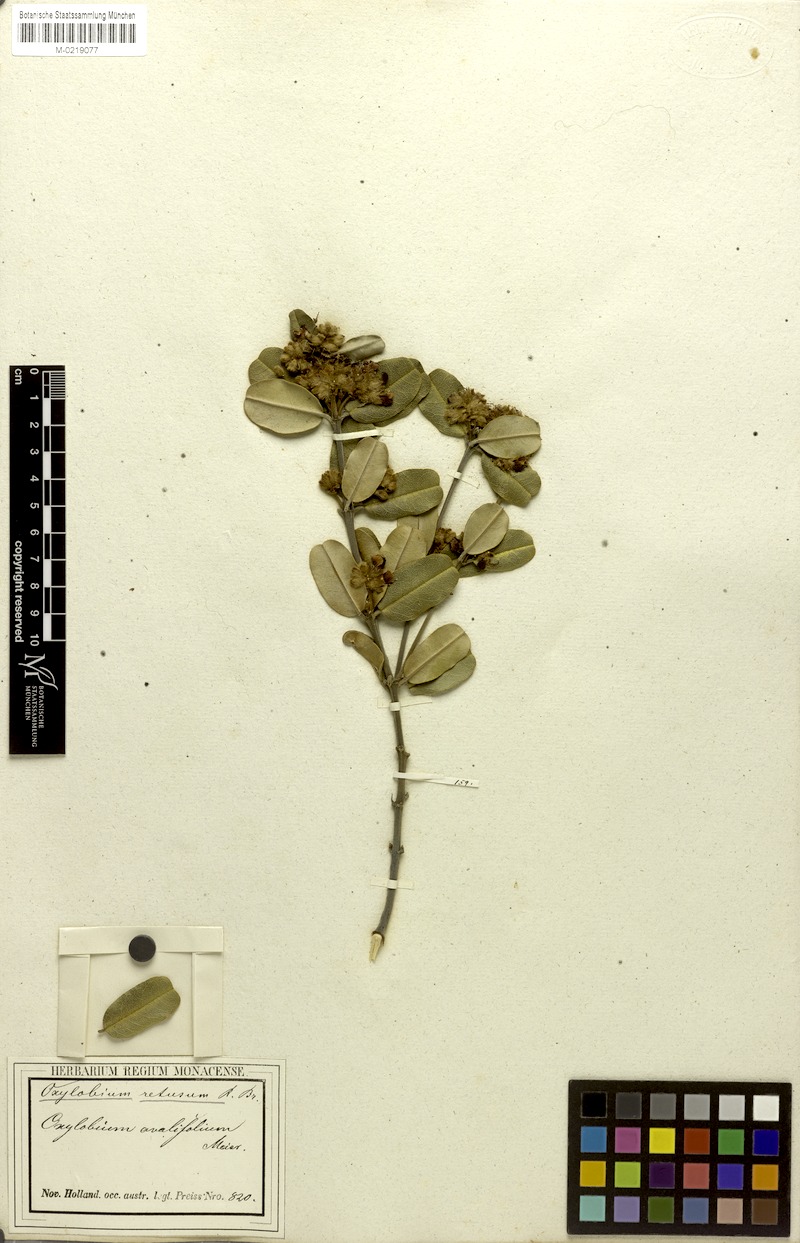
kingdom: Plantae
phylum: Tracheophyta
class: Magnoliopsida
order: Fabales
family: Fabaceae
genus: Gastrolobium
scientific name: Gastrolobium coriaceum
